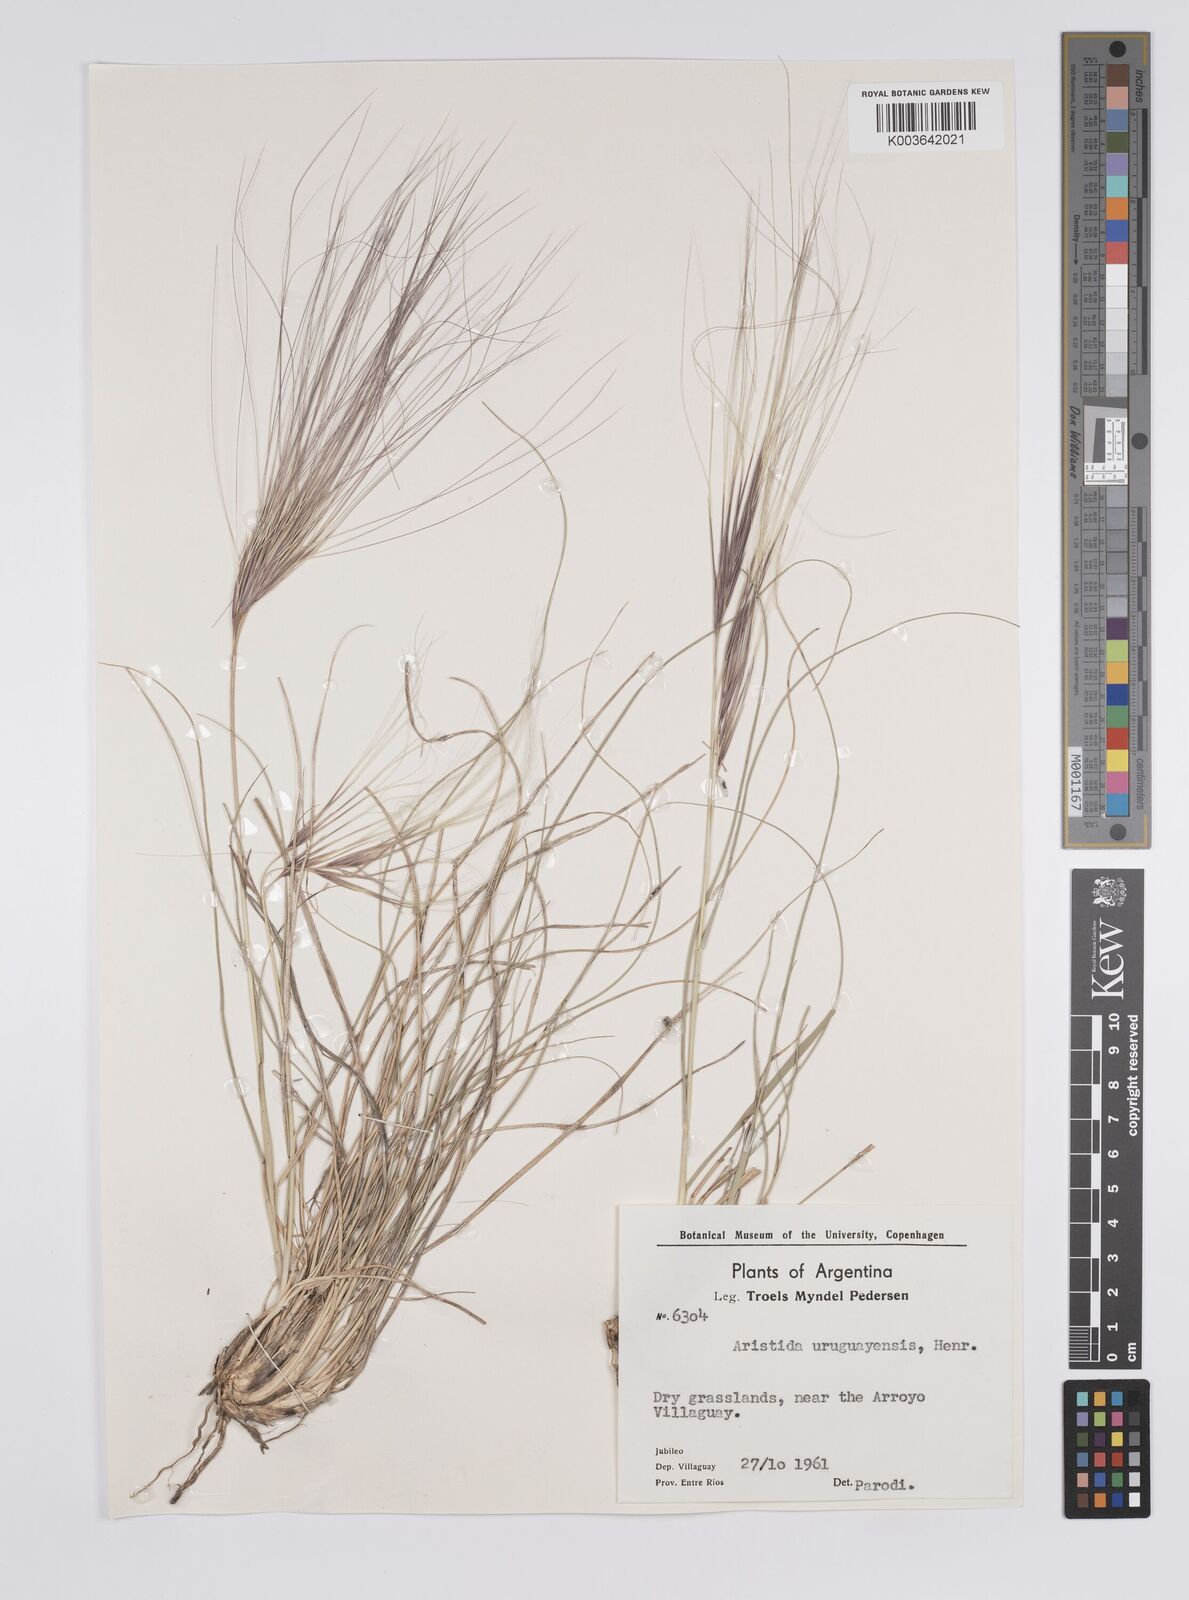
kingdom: Plantae
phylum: Tracheophyta
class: Liliopsida
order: Poales
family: Poaceae
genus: Aristida
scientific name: Aristida uruguayensis
